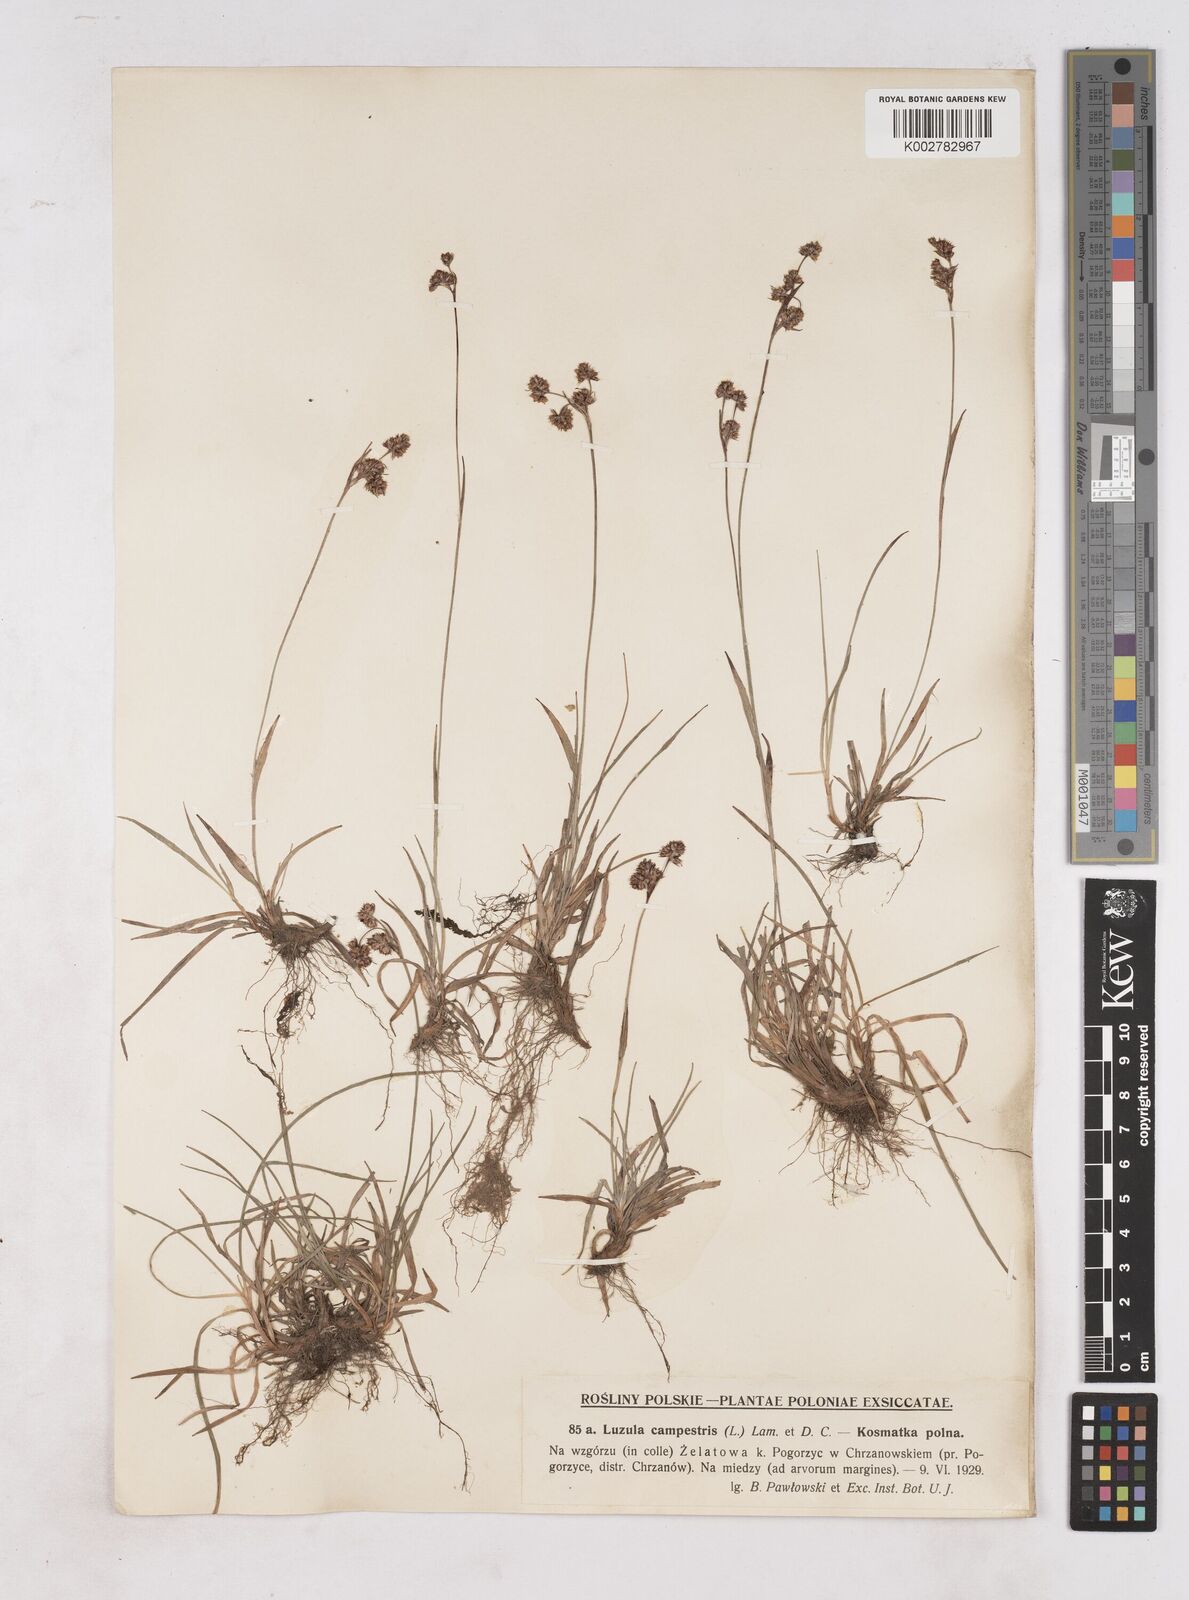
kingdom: Plantae
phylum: Tracheophyta
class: Liliopsida
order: Poales
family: Juncaceae
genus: Luzula
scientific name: Luzula campestris
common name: Field wood-rush
